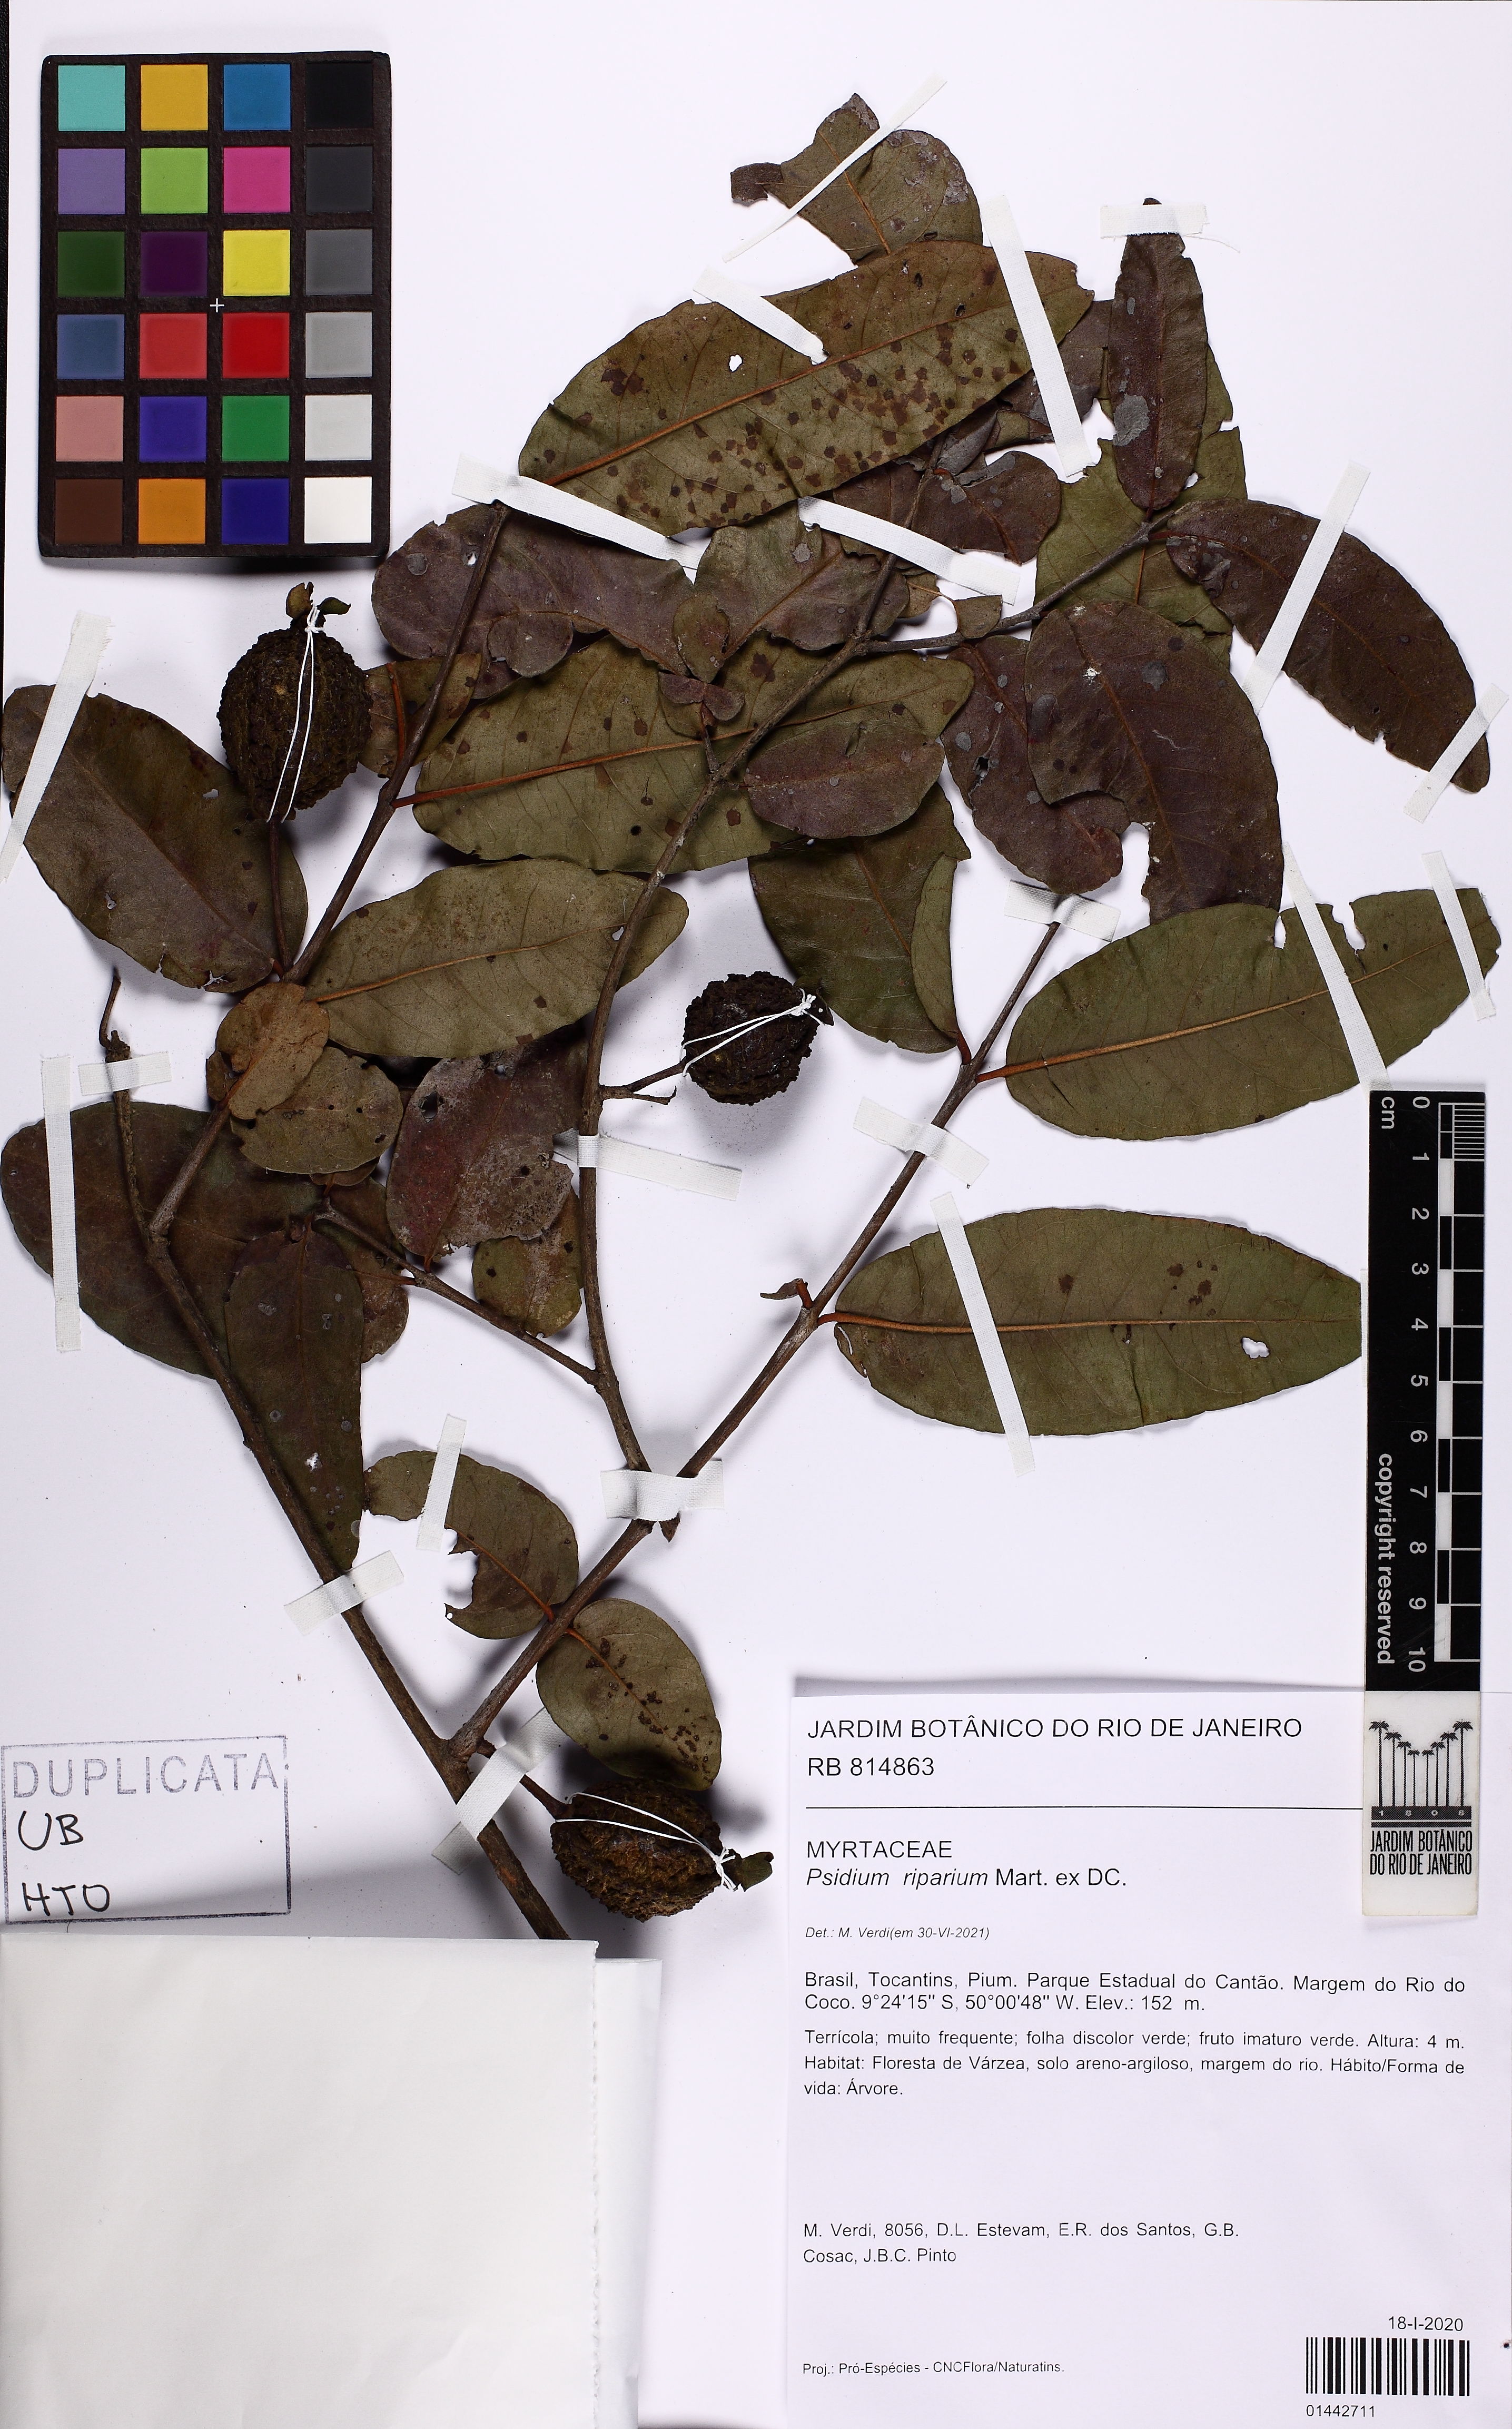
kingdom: Plantae
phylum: Tracheophyta
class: Magnoliopsida
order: Myrtales
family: Myrtaceae
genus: Psidium
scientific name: Psidium riparium
